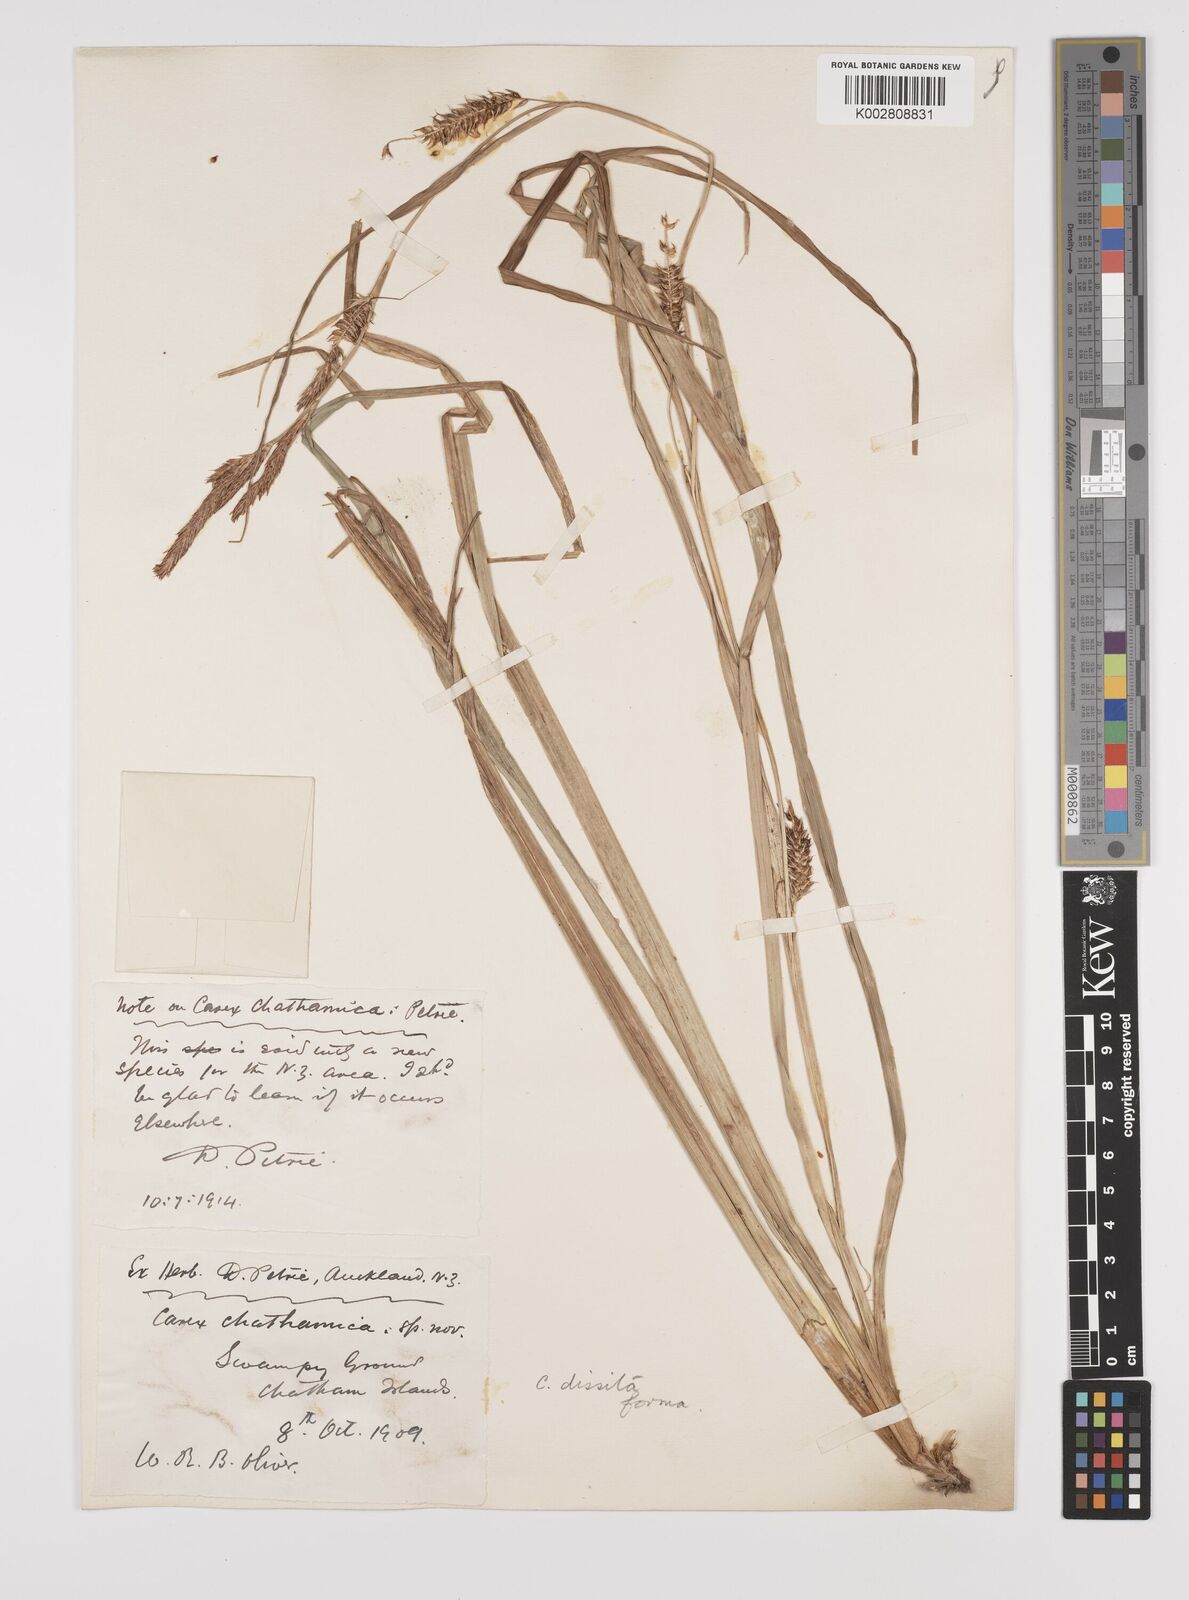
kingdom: Plantae
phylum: Tracheophyta
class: Liliopsida
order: Poales
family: Cyperaceae
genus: Carex
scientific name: Carex chathamica
